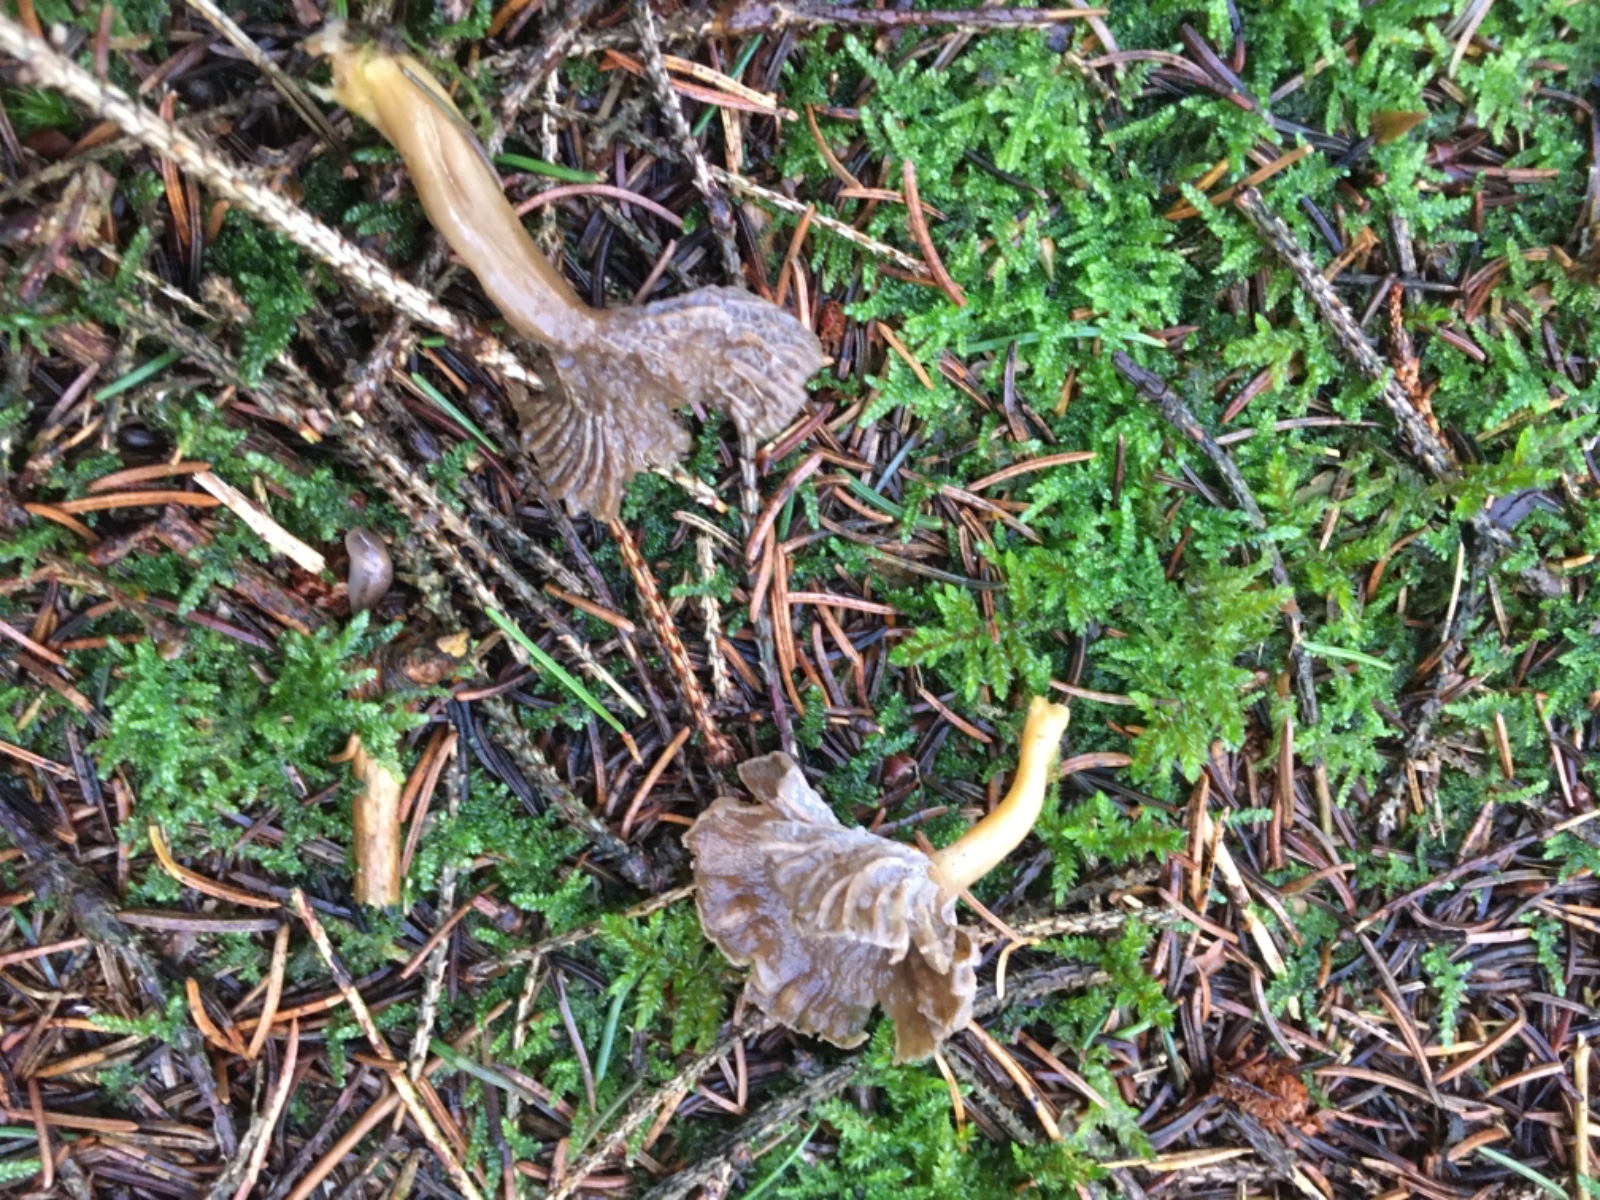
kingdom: Fungi
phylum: Basidiomycota
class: Agaricomycetes
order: Cantharellales
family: Hydnaceae
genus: Craterellus
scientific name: Craterellus tubaeformis
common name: tragt-kantarel
